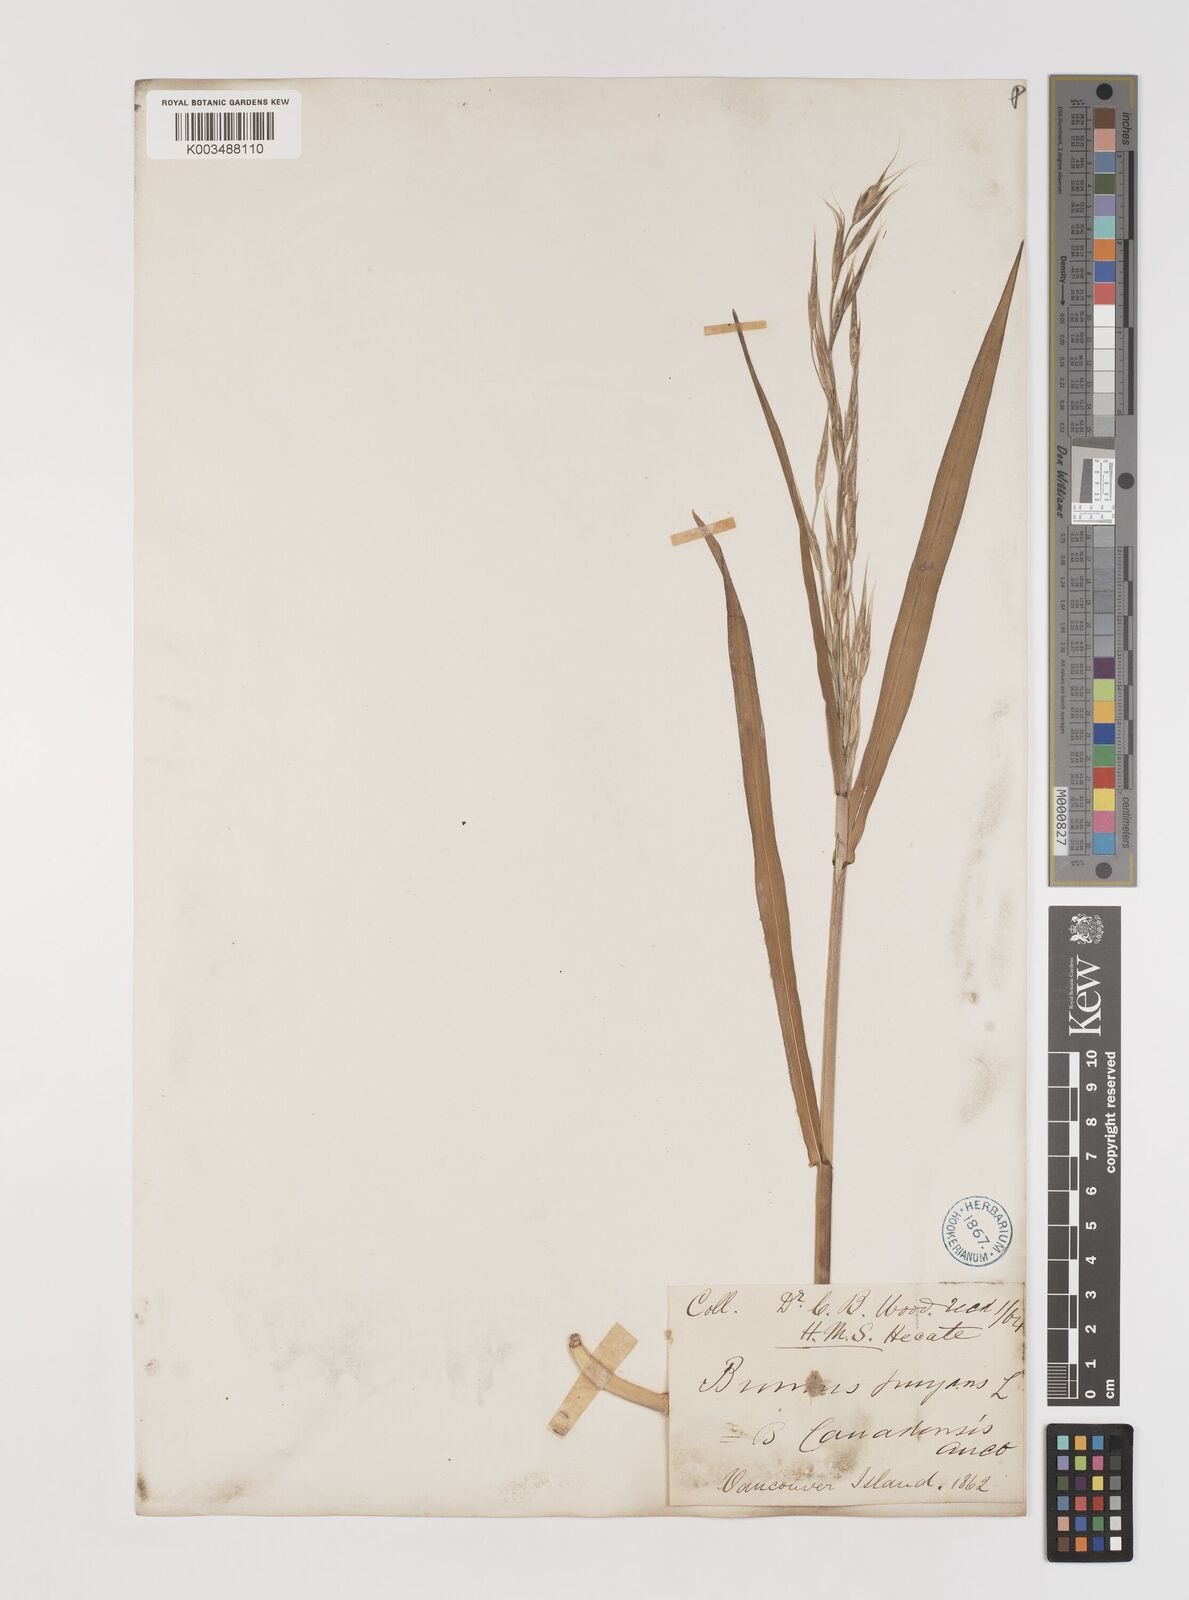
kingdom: Plantae
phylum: Tracheophyta
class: Liliopsida
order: Poales
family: Poaceae
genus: Bromus
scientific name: Bromus pumpellianus
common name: Pumpelly's brome
